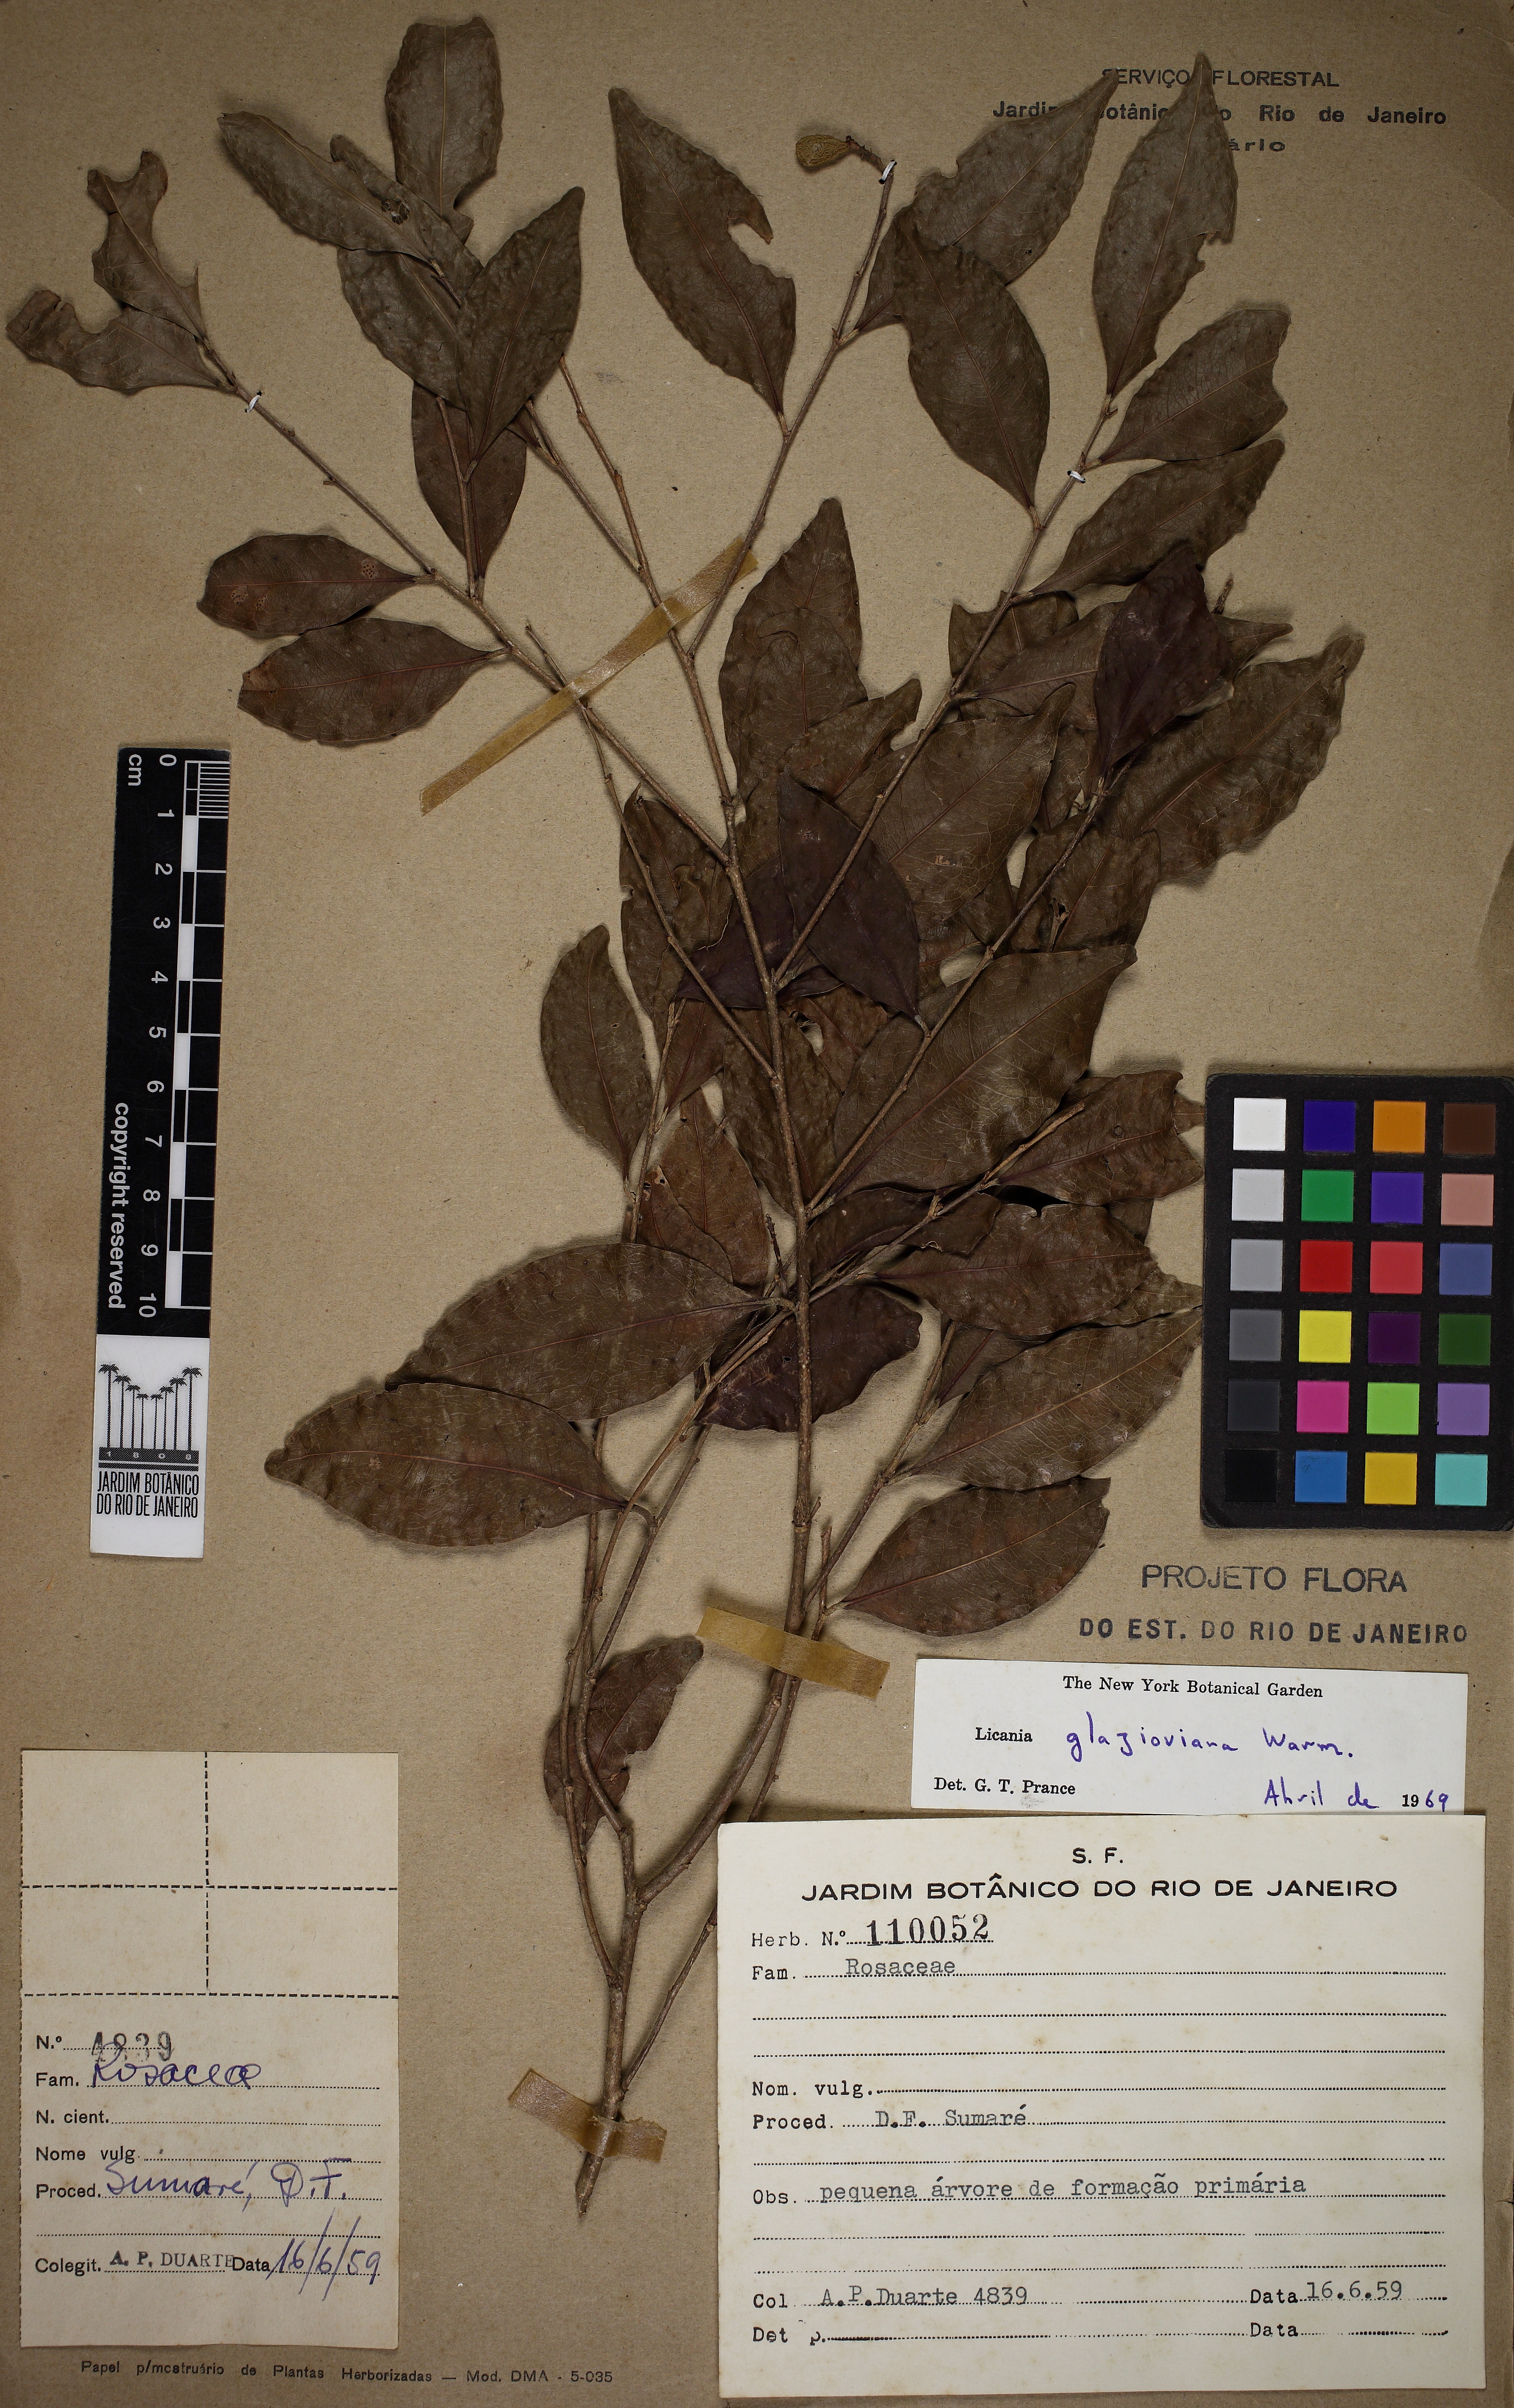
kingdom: Plantae
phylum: Tracheophyta
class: Magnoliopsida
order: Malpighiales
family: Chrysobalanaceae
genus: Licania
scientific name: Licania glazioviana
